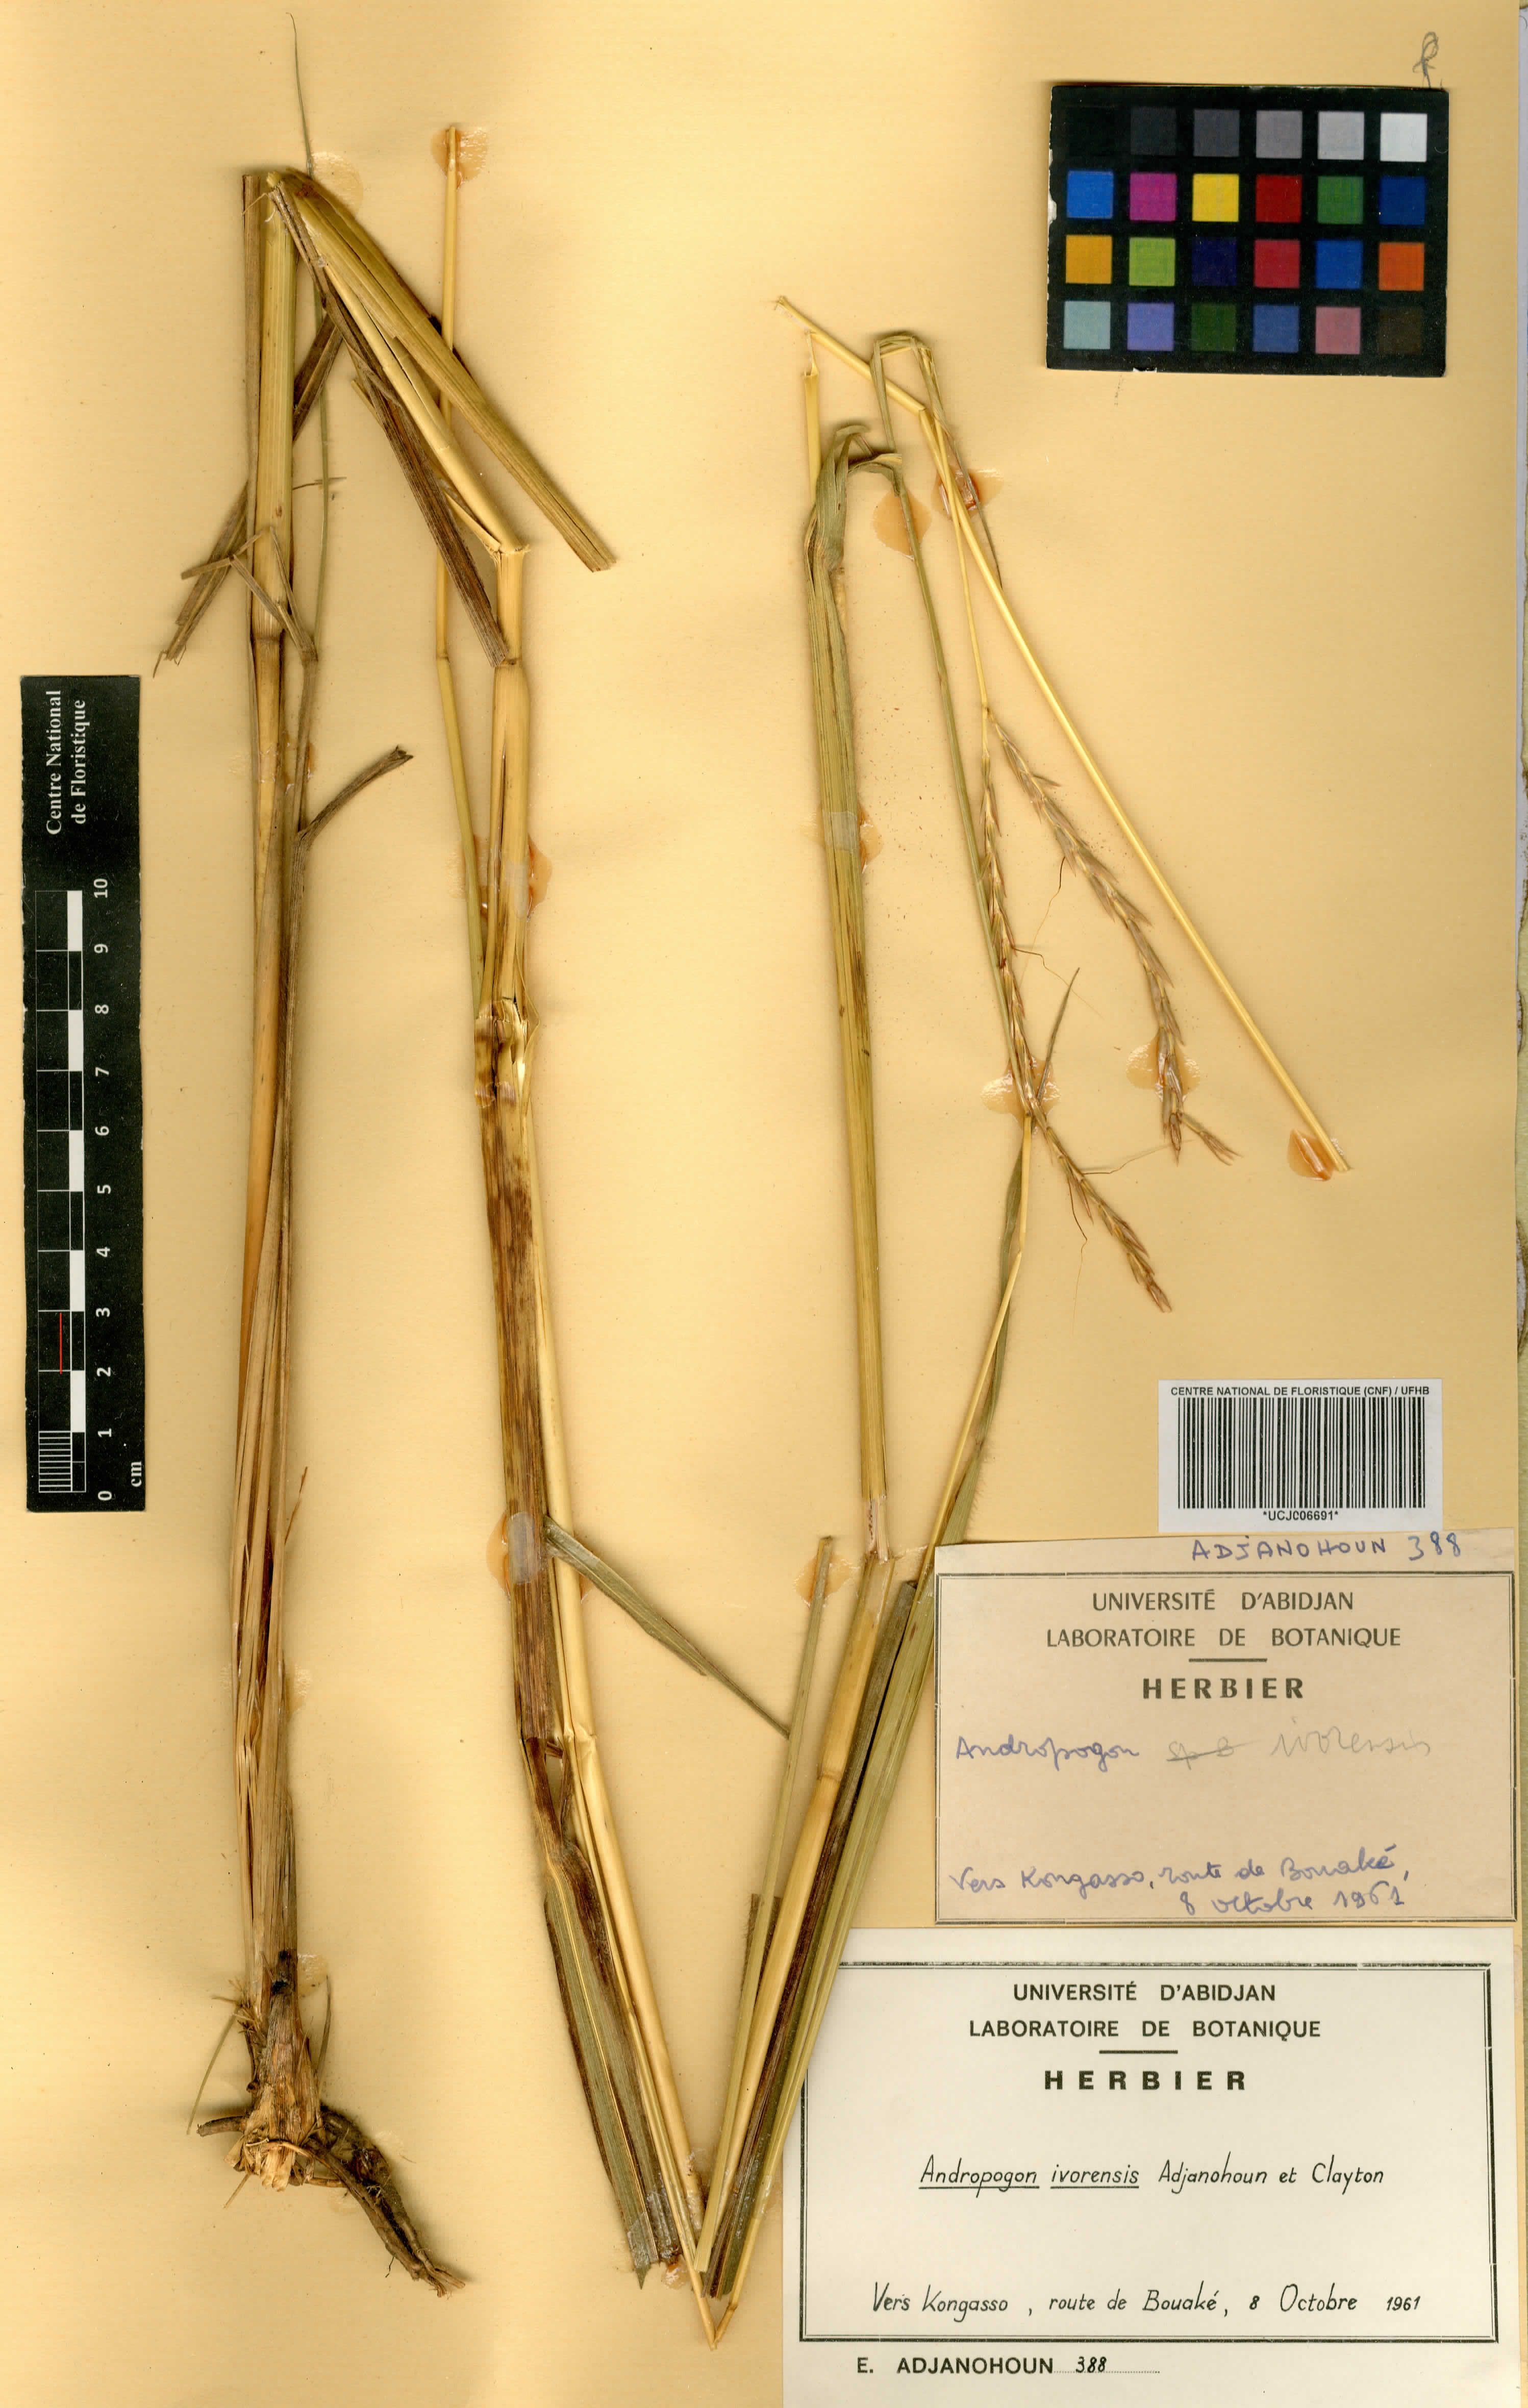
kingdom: Plantae
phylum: Tracheophyta
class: Liliopsida
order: Poales
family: Poaceae
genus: Andropogon
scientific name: Andropogon ivorensis
